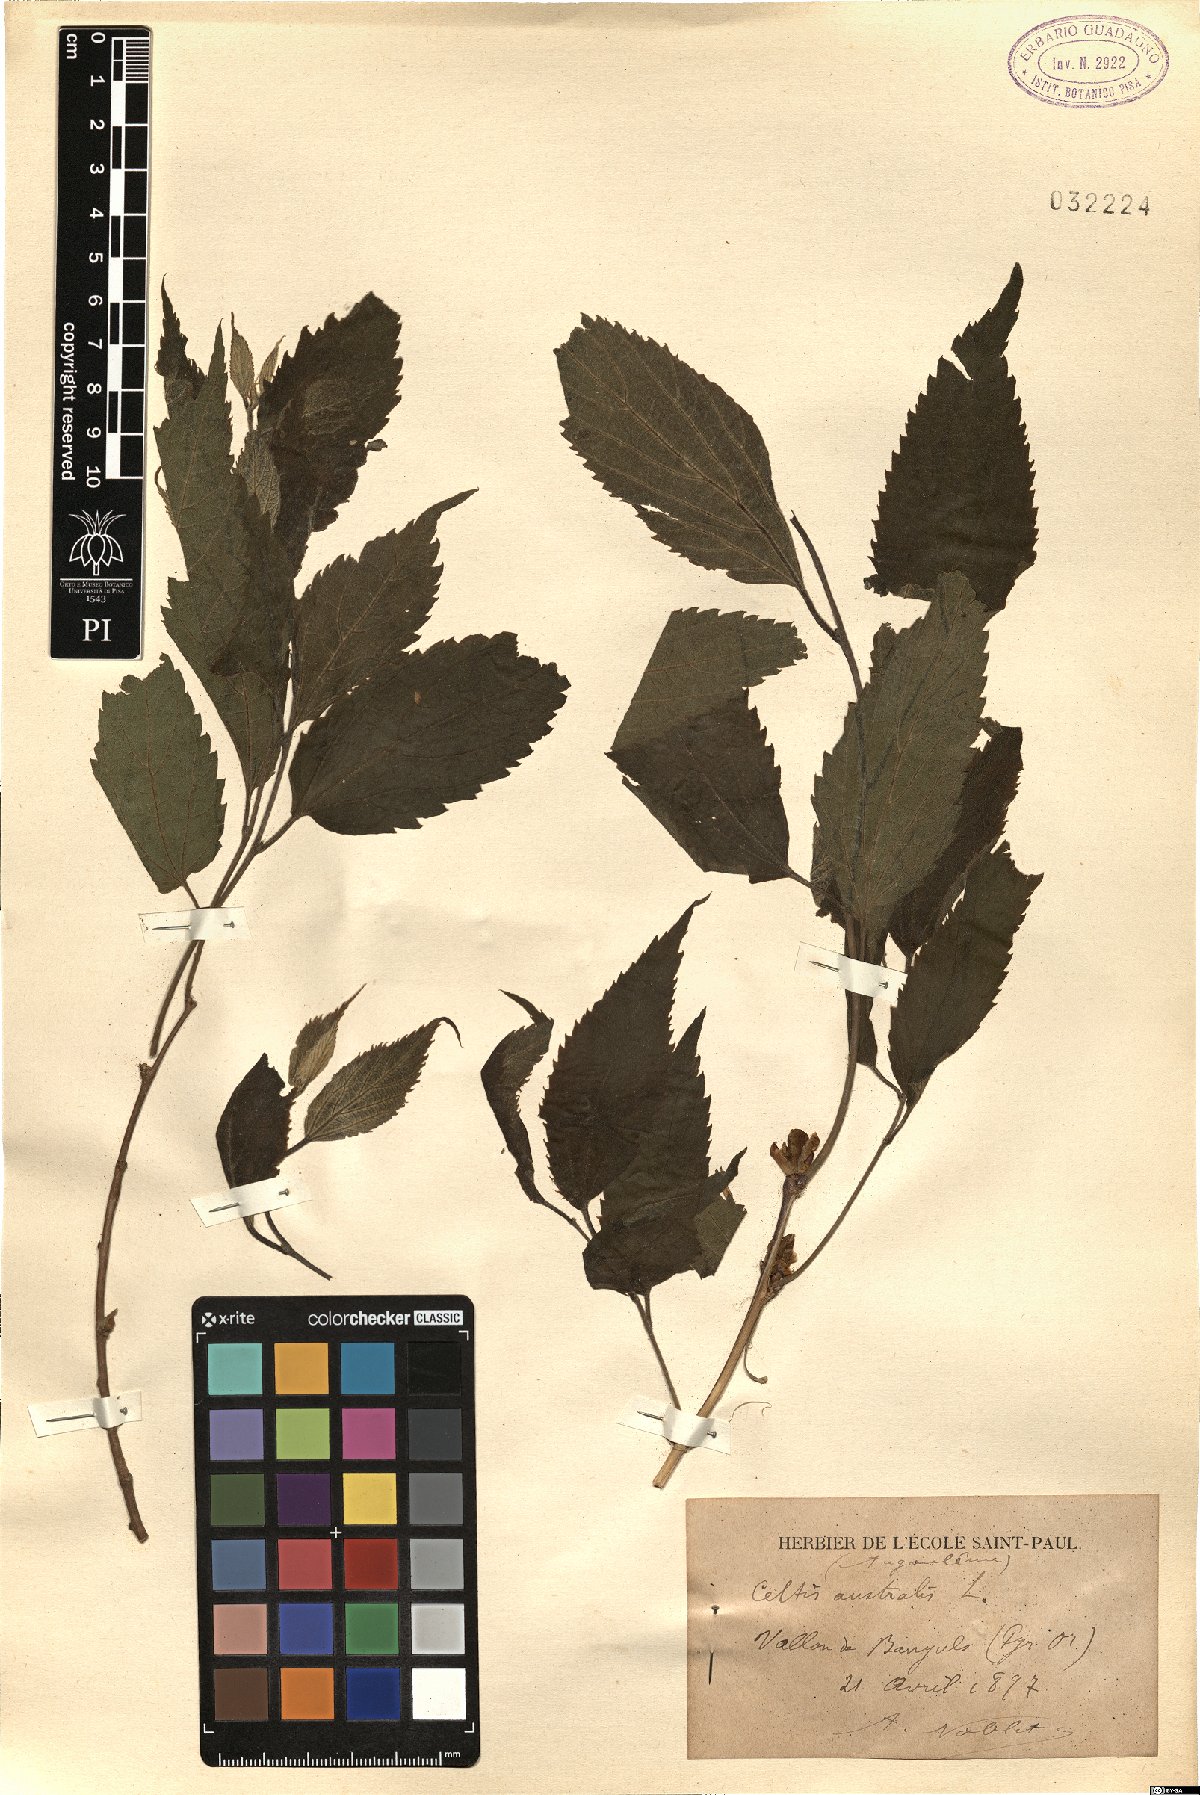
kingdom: Plantae
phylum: Tracheophyta
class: Magnoliopsida
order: Rosales
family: Cannabaceae
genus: Celtis
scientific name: Celtis australis
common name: European hackberry
